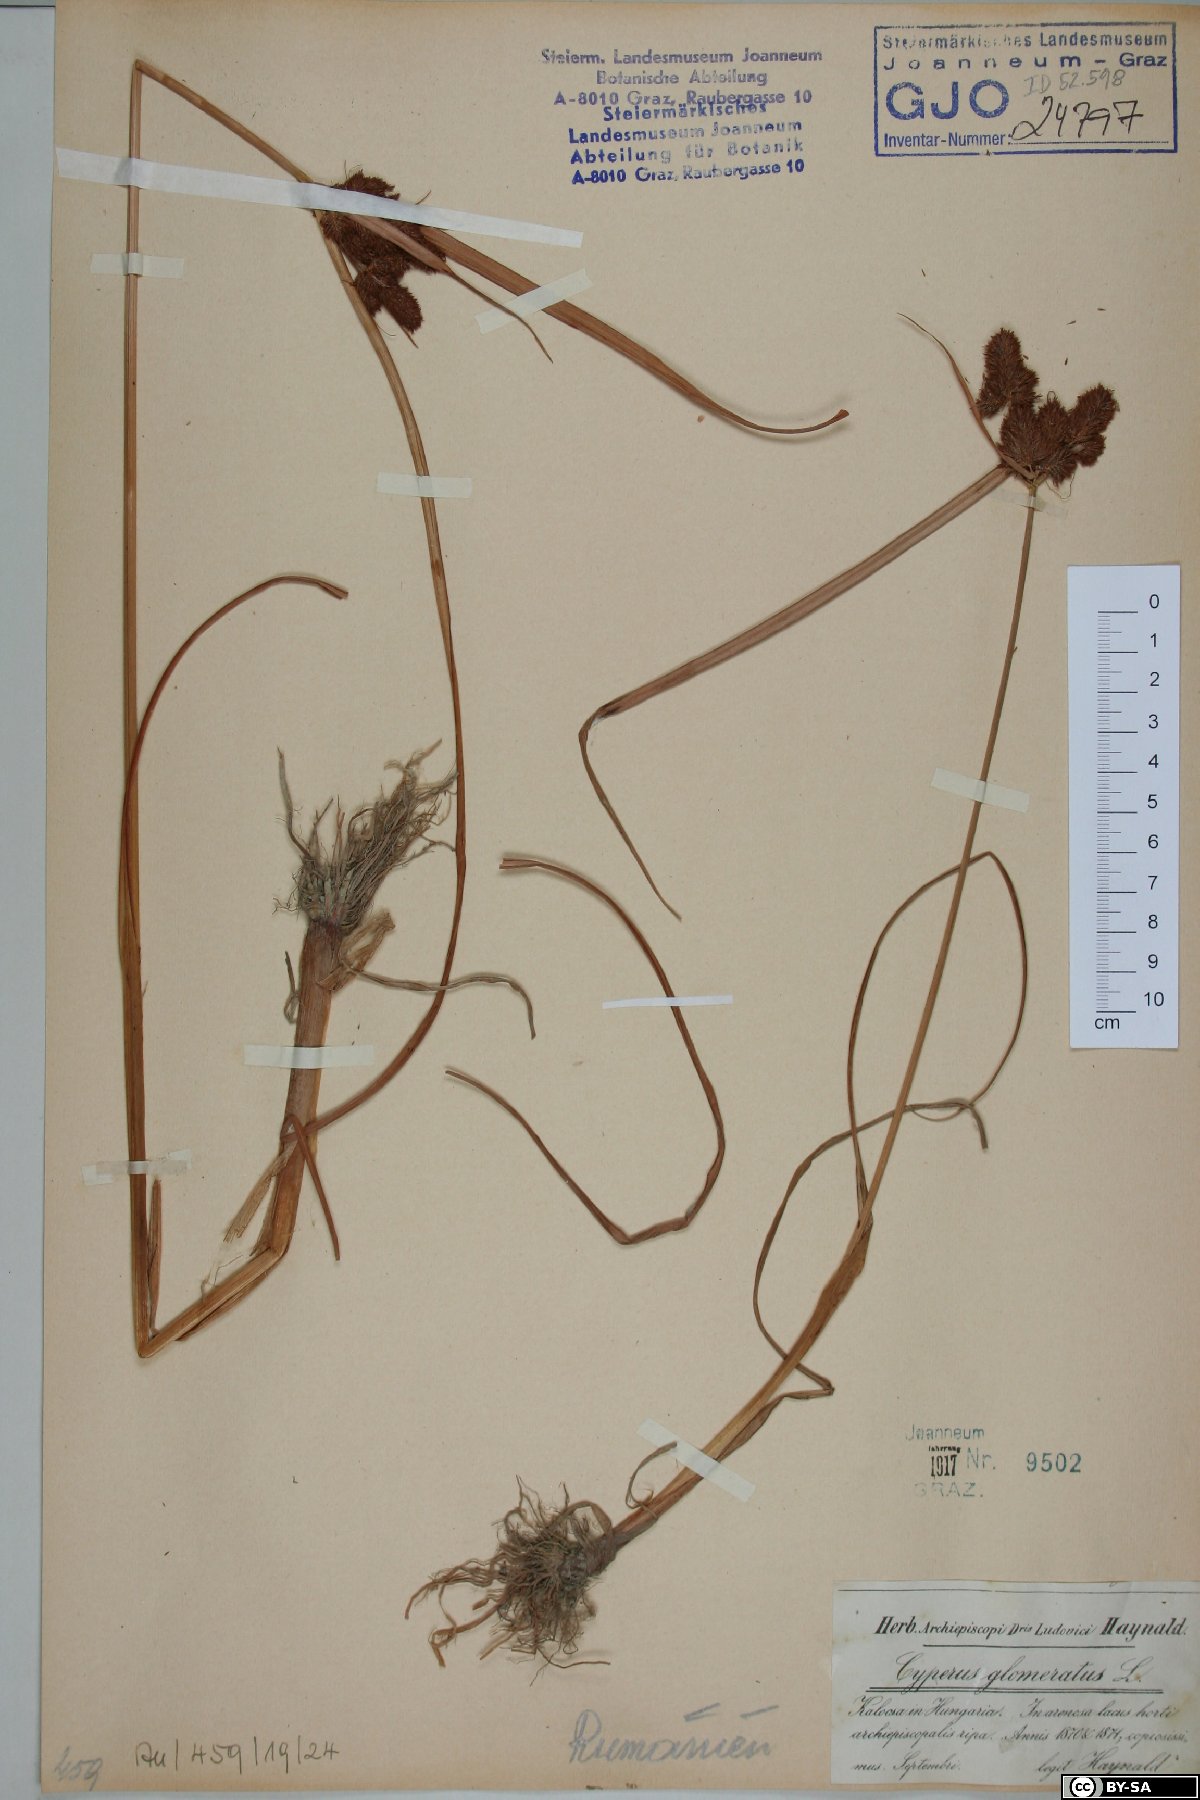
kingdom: Plantae
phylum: Tracheophyta
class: Liliopsida
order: Poales
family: Cyperaceae
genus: Cyperus
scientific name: Cyperus glomeratus
